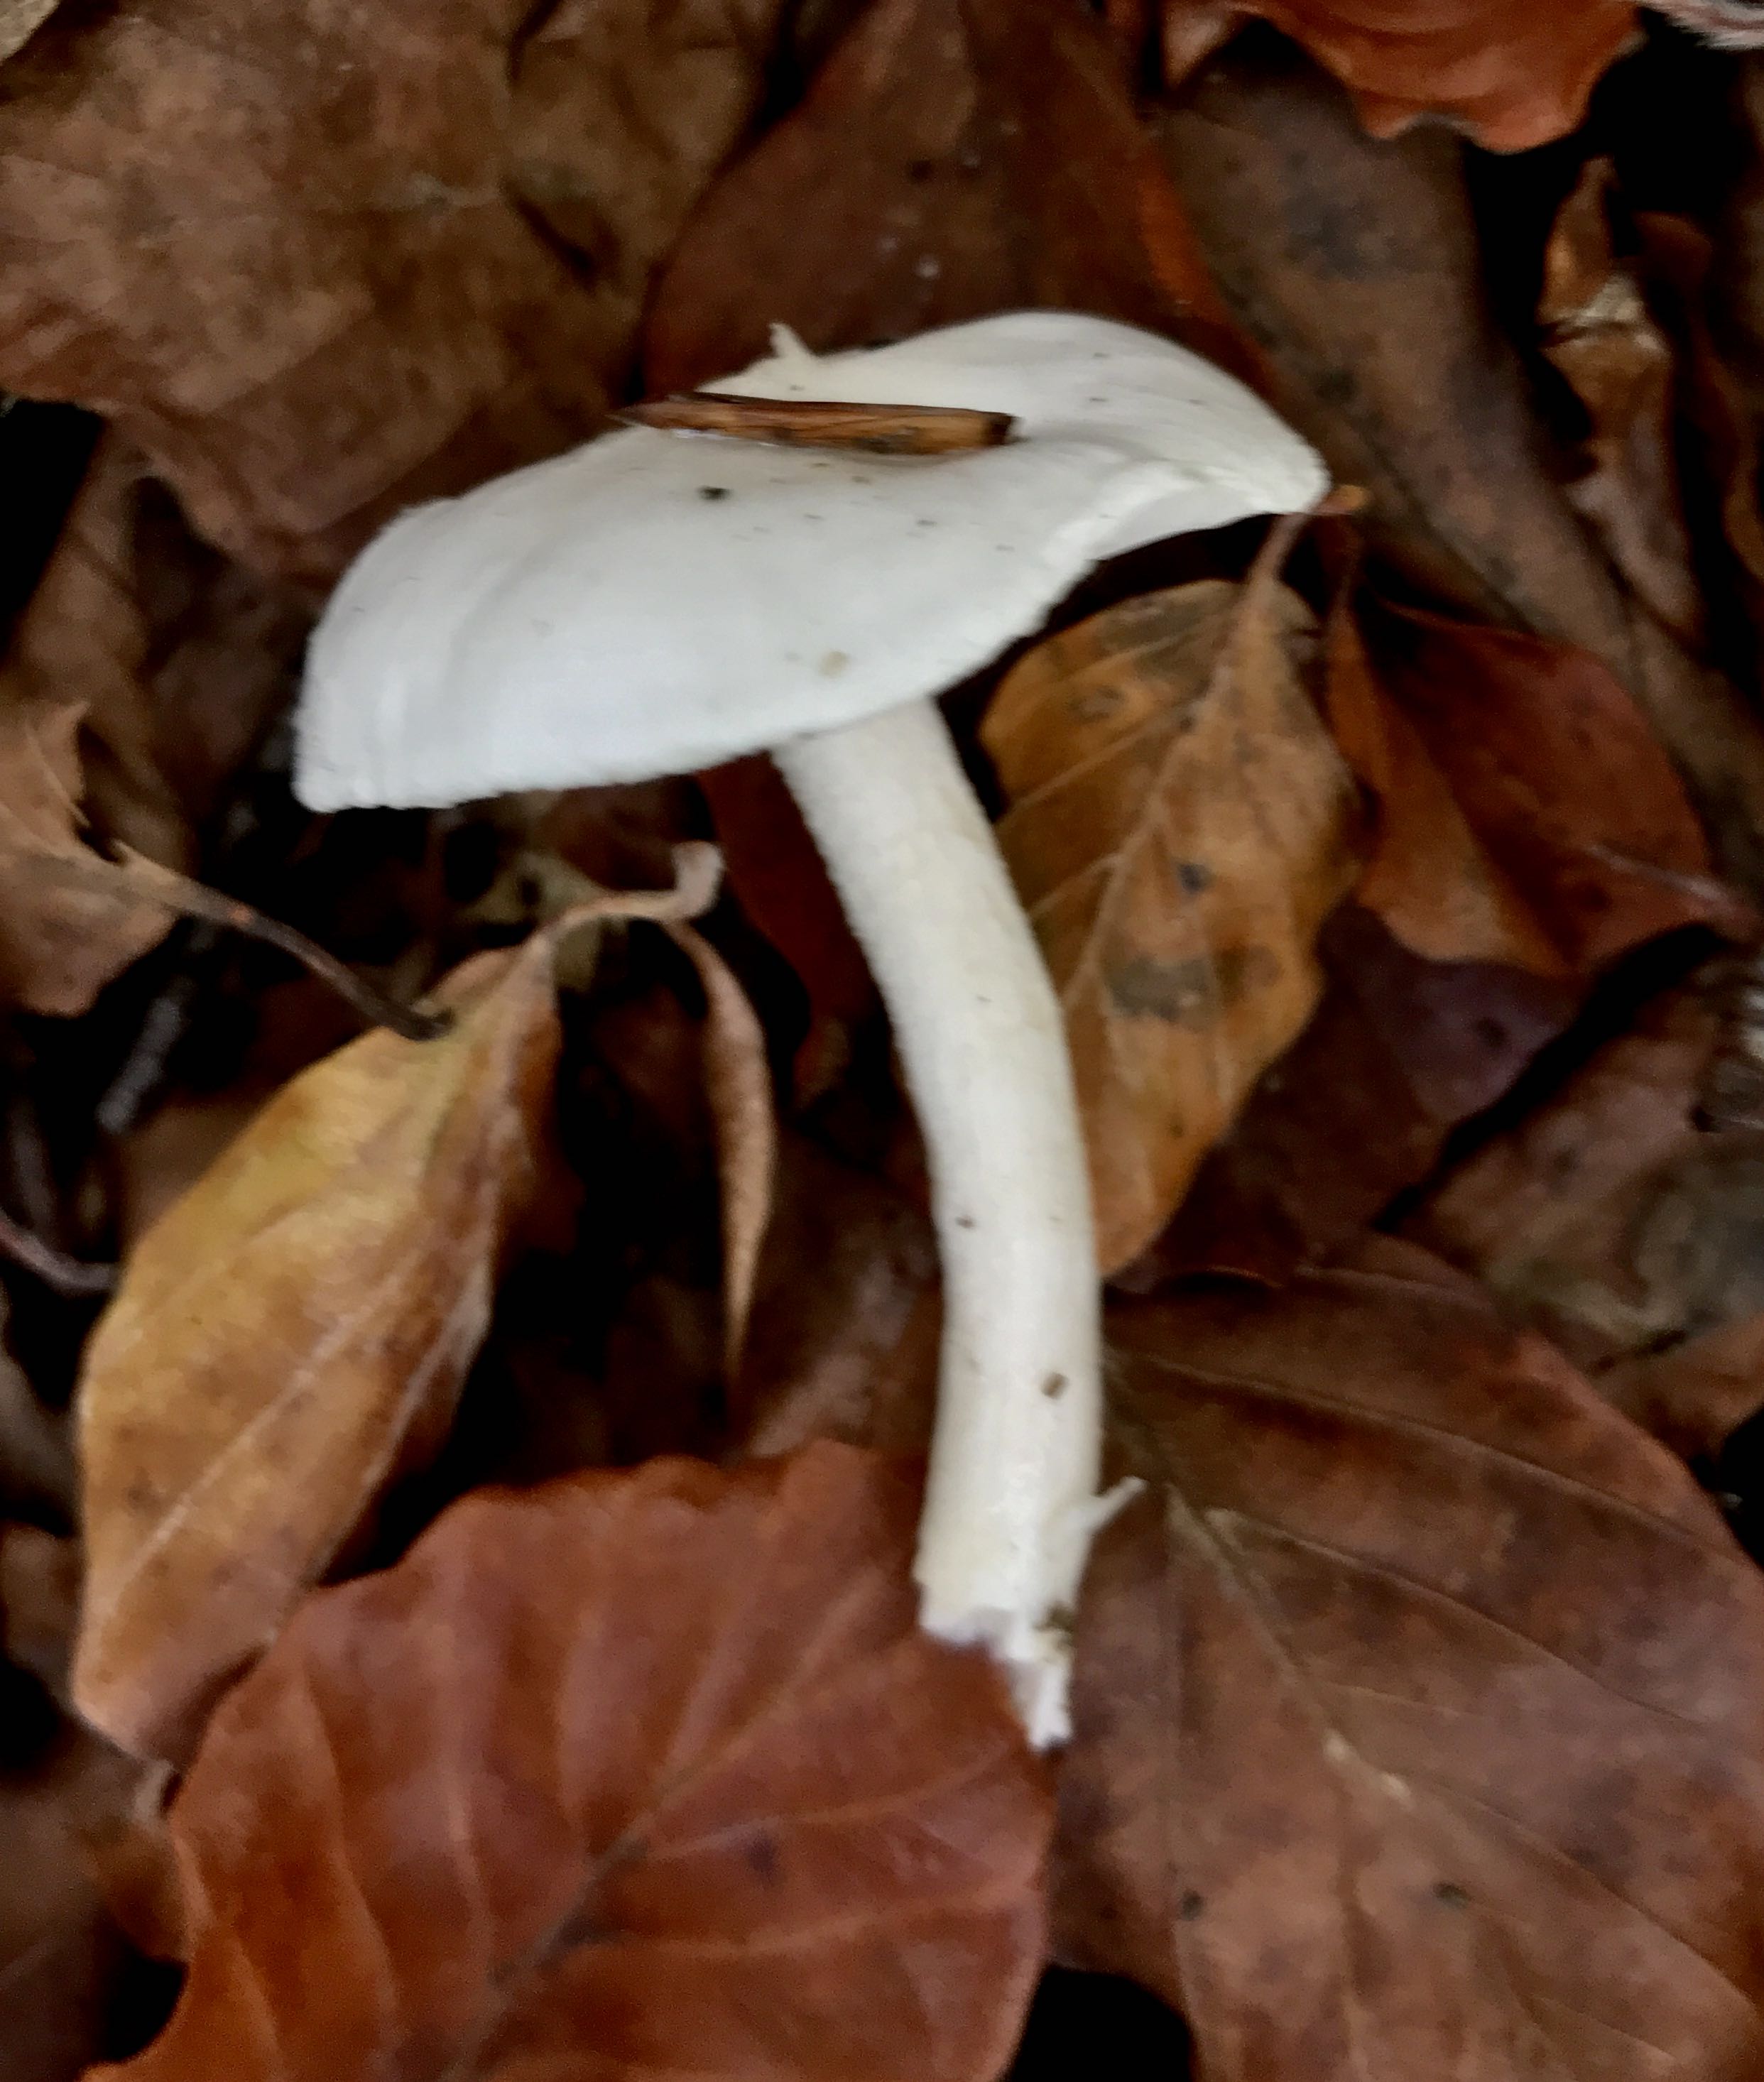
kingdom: Fungi
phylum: Basidiomycota
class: Agaricomycetes
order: Agaricales
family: Hygrophoraceae
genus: Hygrophorus
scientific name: Hygrophorus eburneus
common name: elfenbens-sneglehat
